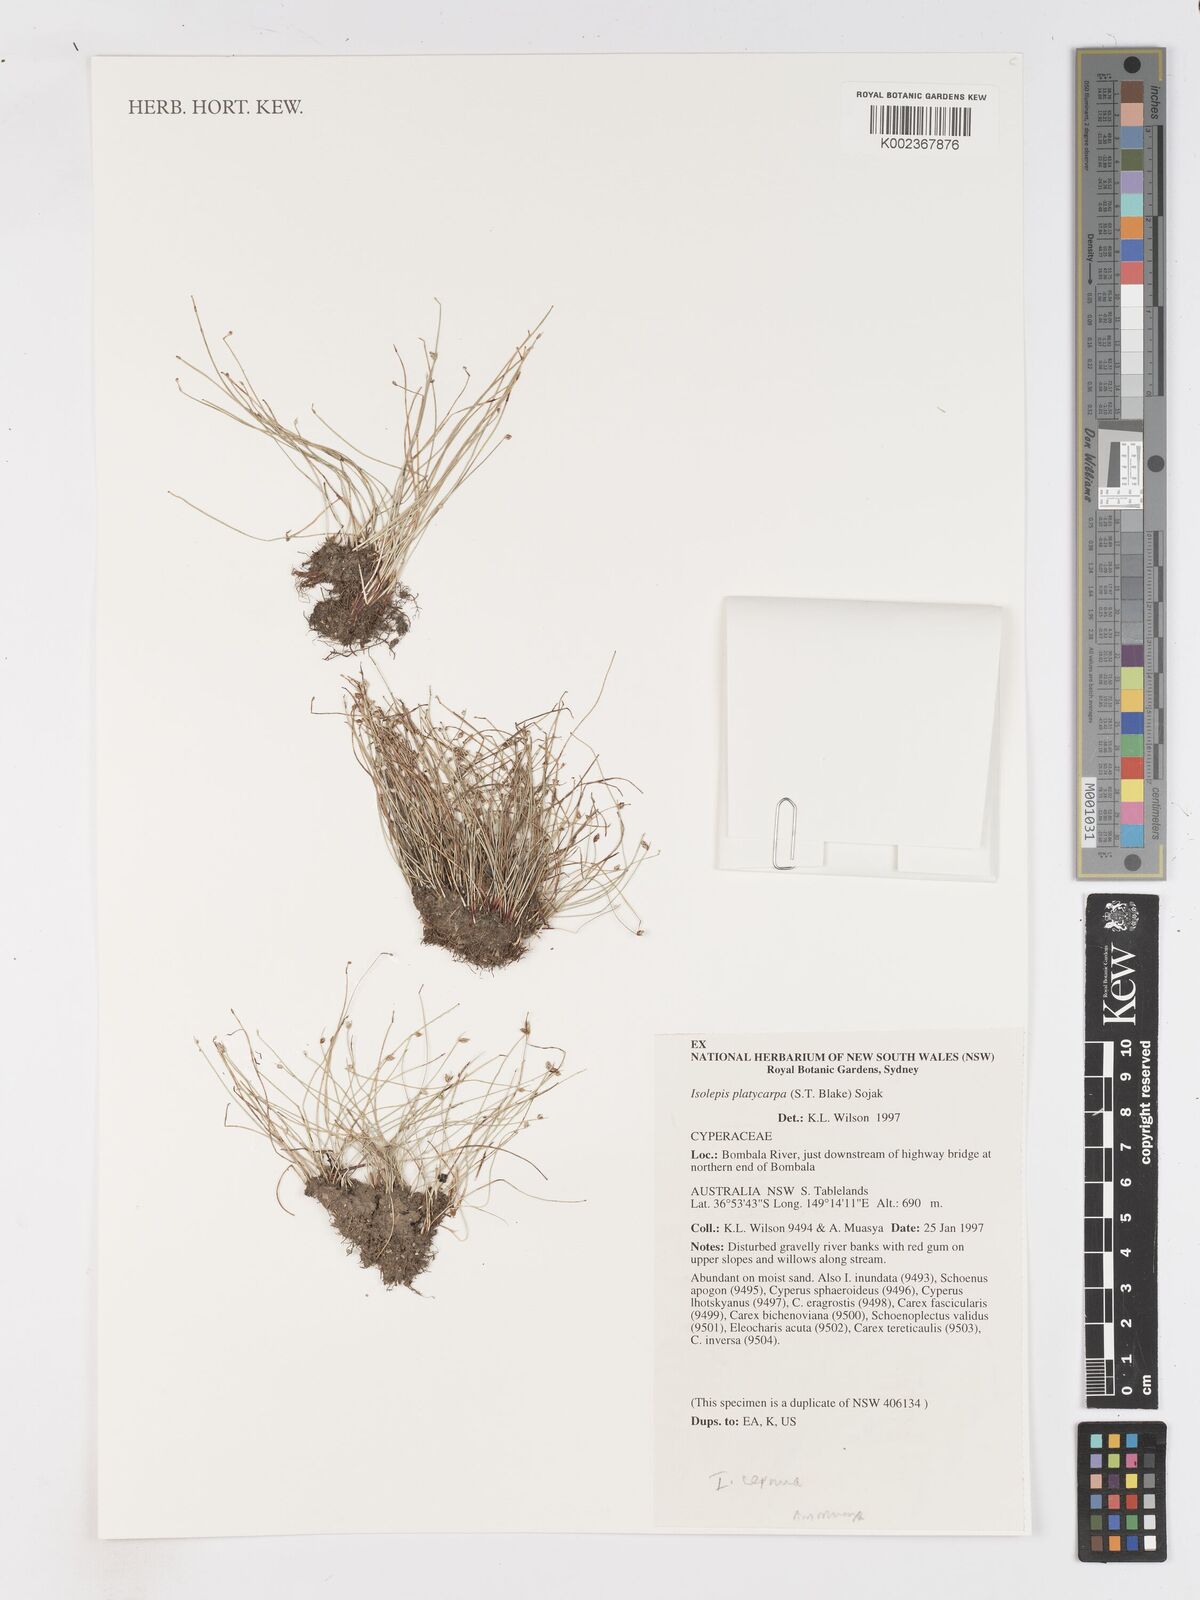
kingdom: Plantae
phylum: Tracheophyta
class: Liliopsida
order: Poales
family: Cyperaceae
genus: Isolepis
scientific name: Isolepis cernua
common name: Slender club-rush
